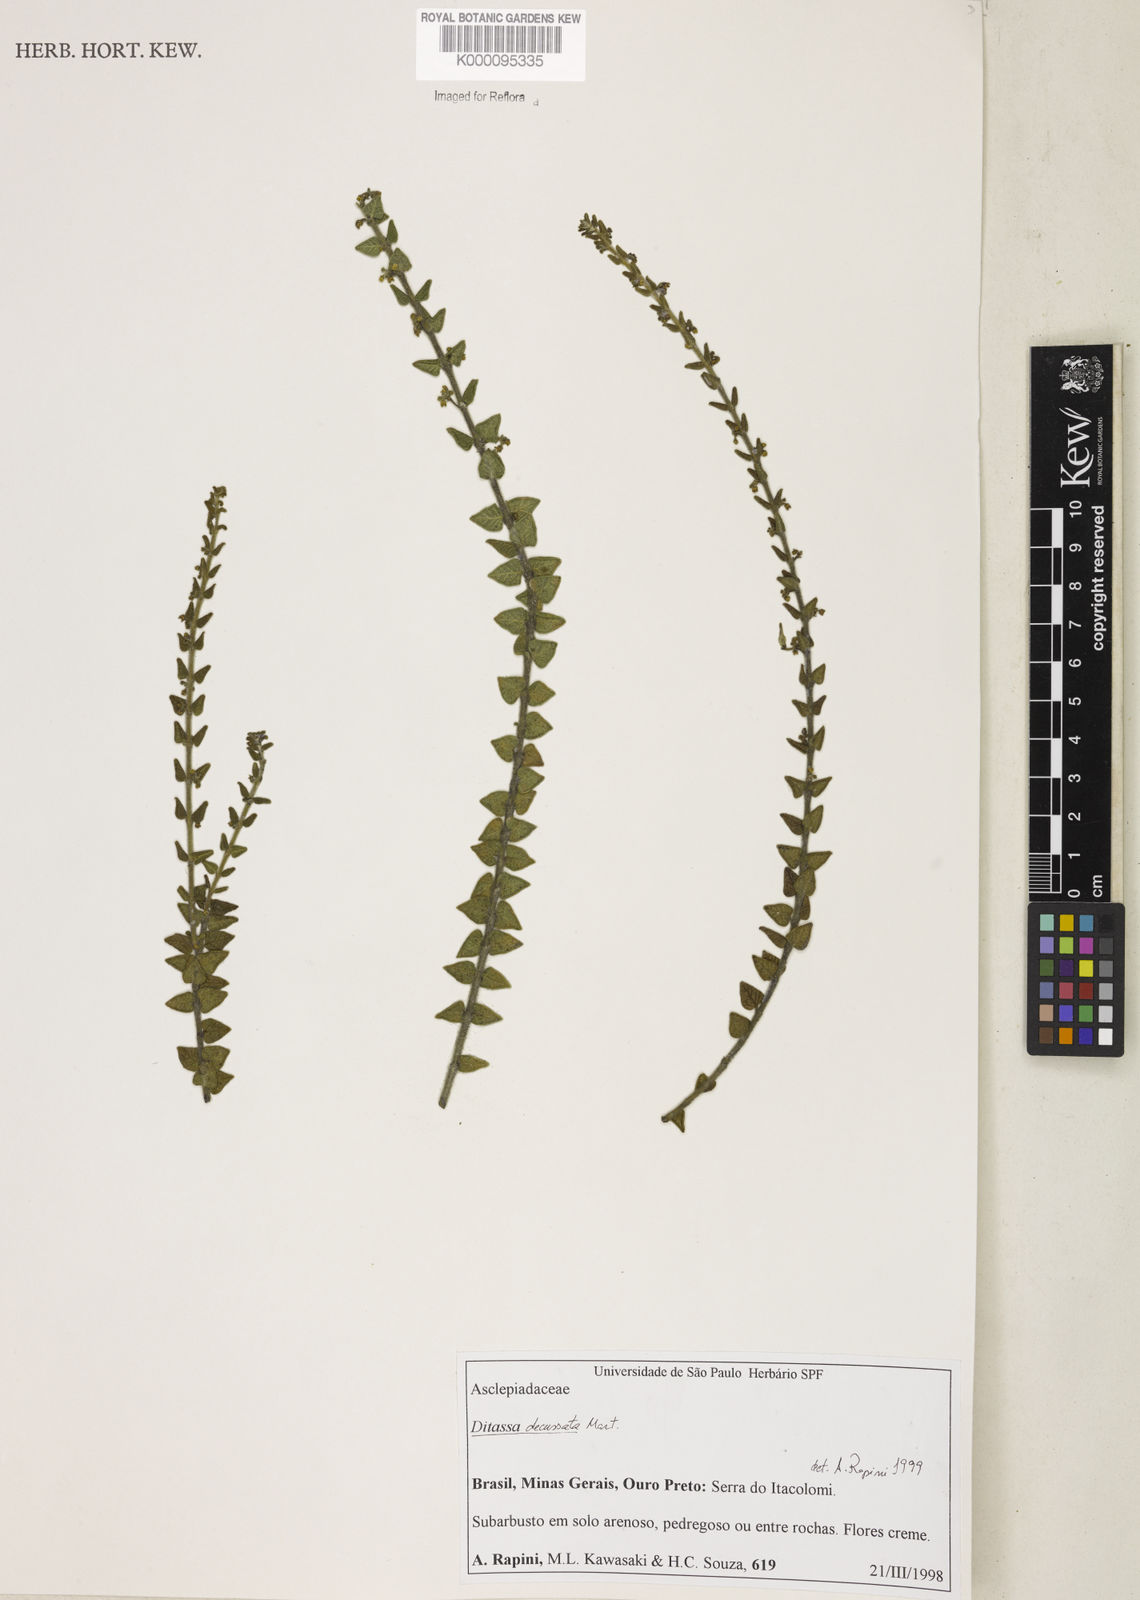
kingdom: Plantae
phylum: Tracheophyta
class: Magnoliopsida
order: Gentianales
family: Apocynaceae
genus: Minaria
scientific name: Minaria decussata
